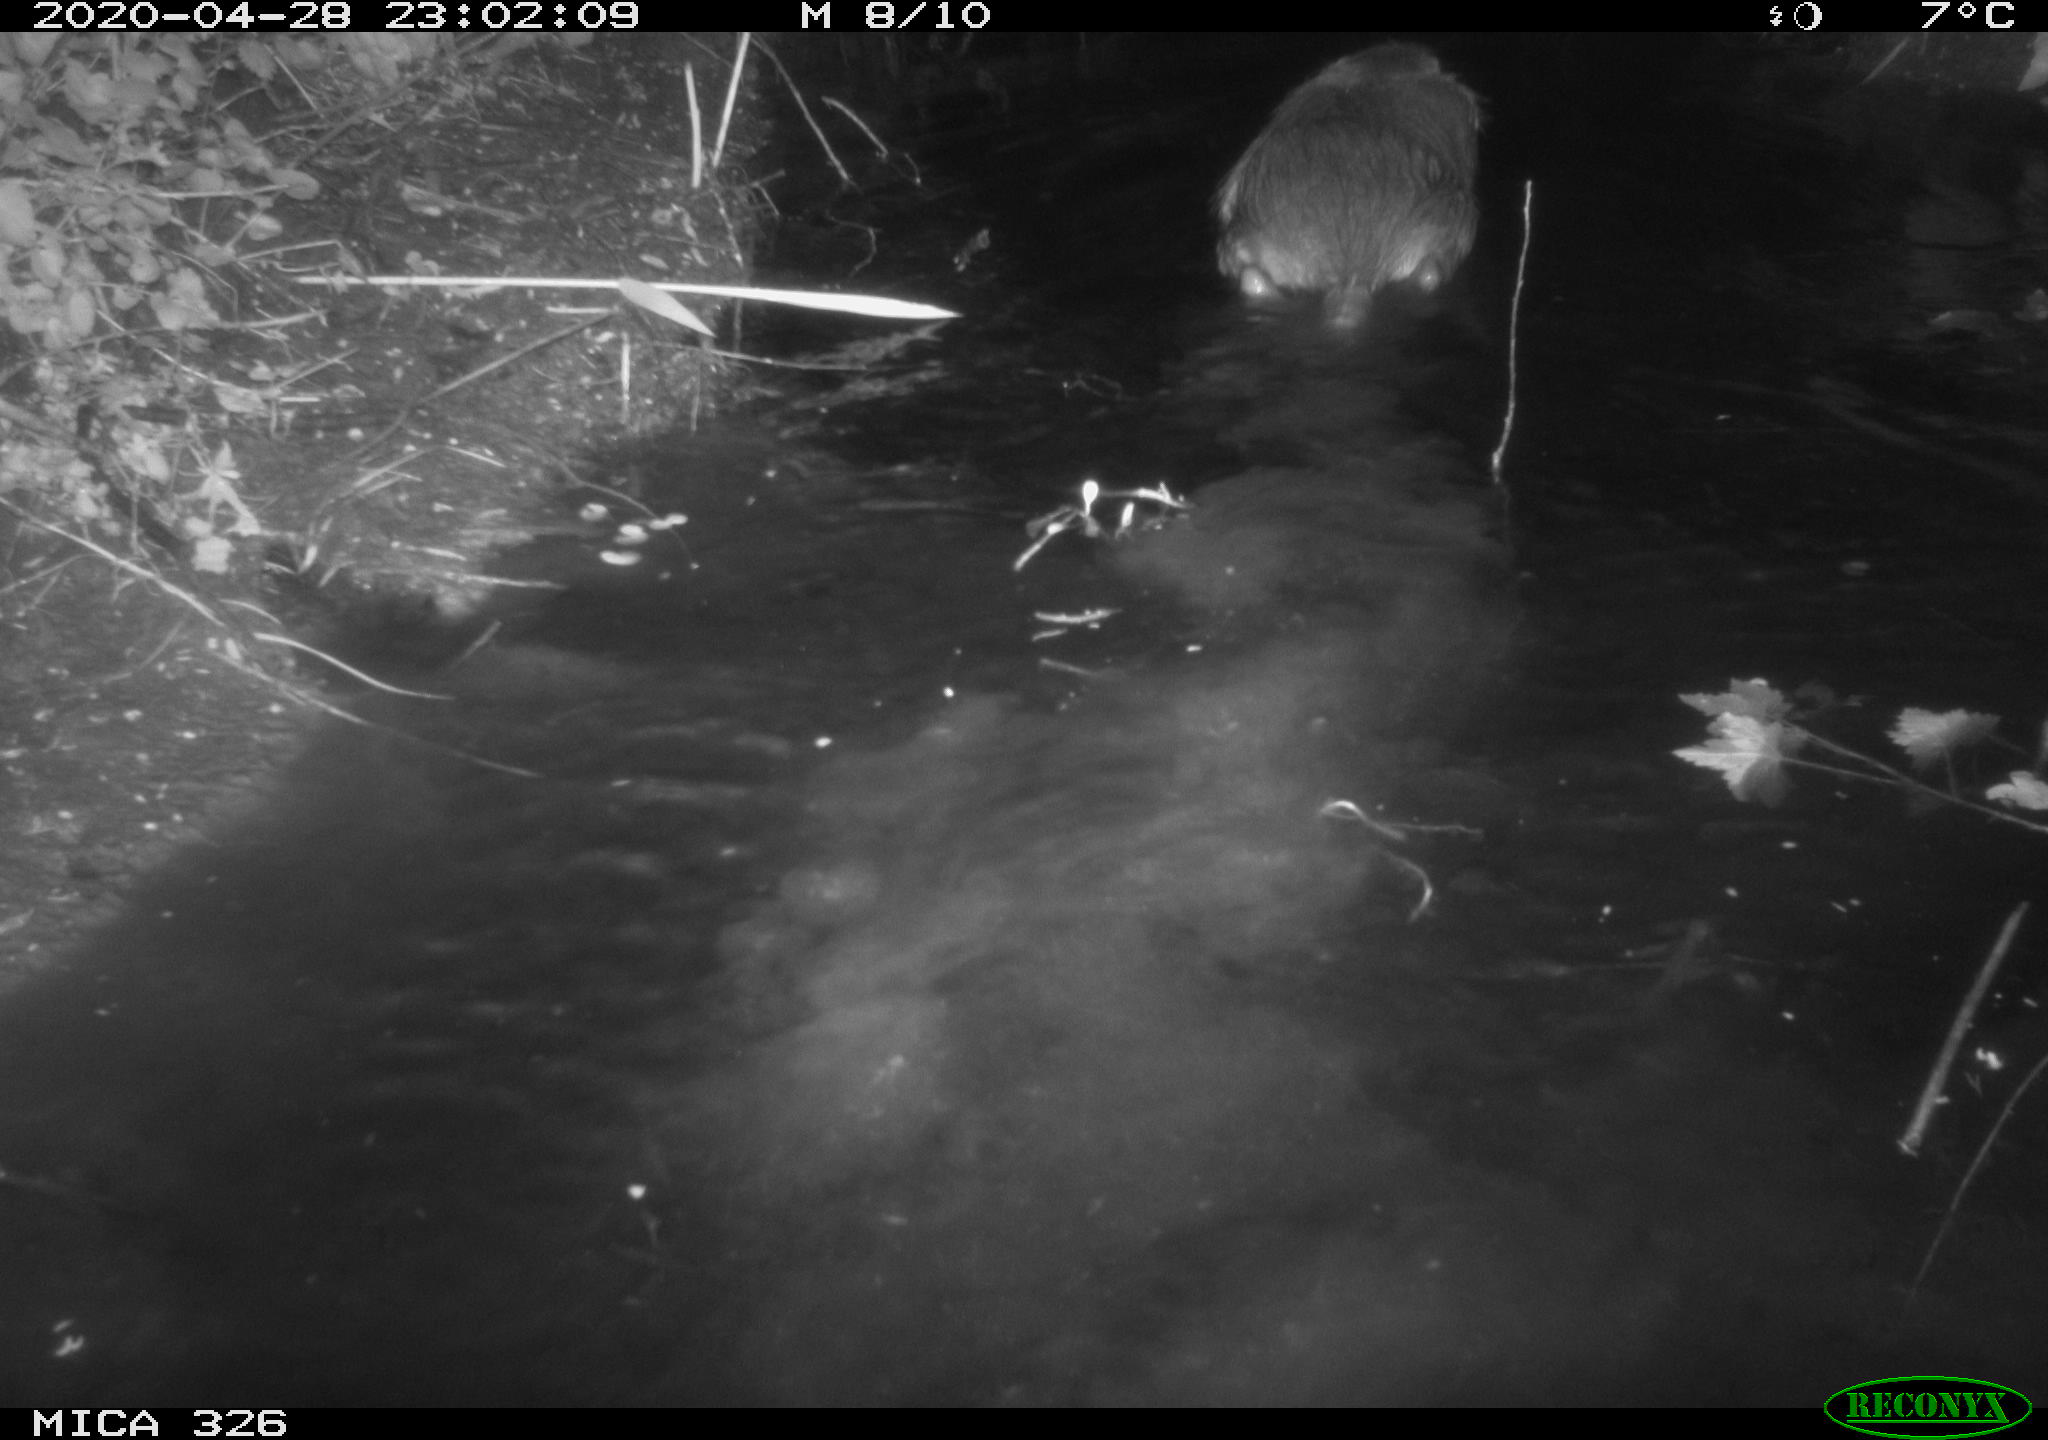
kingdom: Animalia
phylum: Chordata
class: Mammalia
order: Rodentia
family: Myocastoridae
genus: Myocastor
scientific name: Myocastor coypus
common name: Coypu
